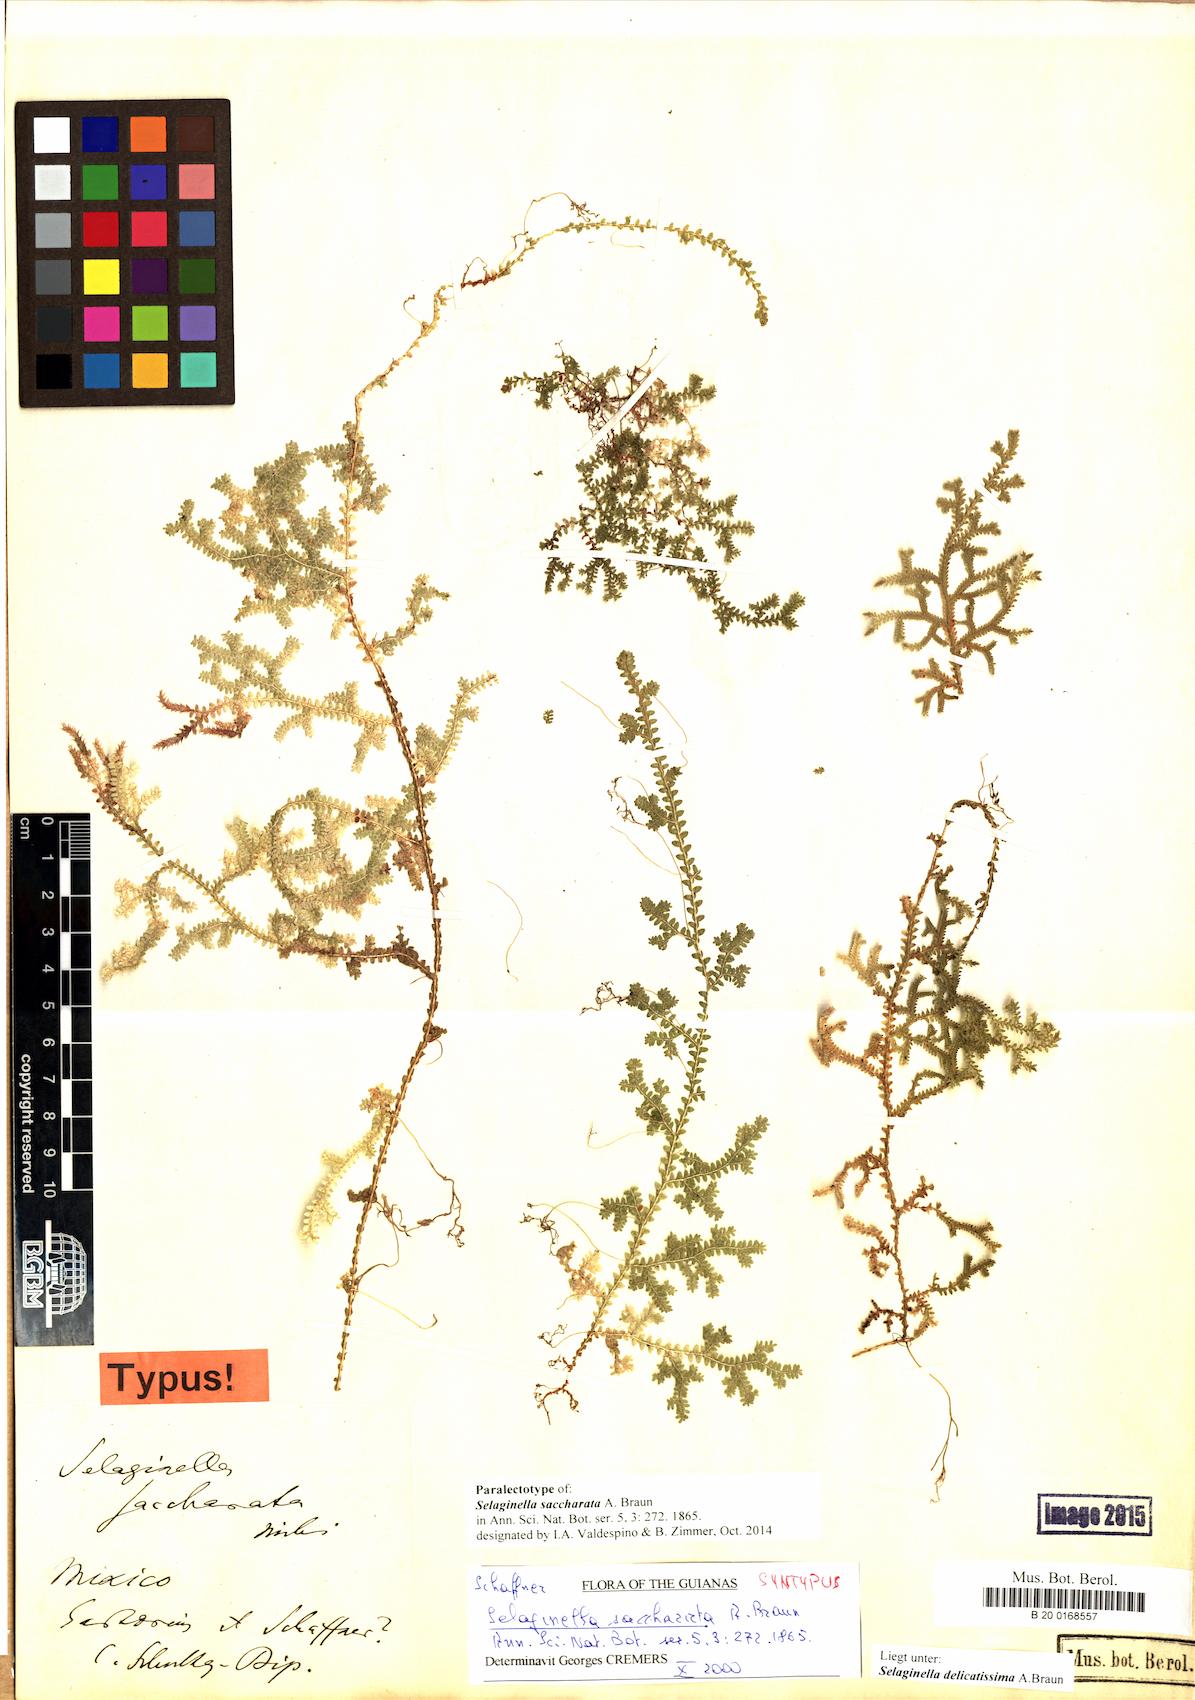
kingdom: Plantae
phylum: Tracheophyta
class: Lycopodiopsida
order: Selaginellales
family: Selaginellaceae
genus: Selaginella
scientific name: Selaginella delicatissima
